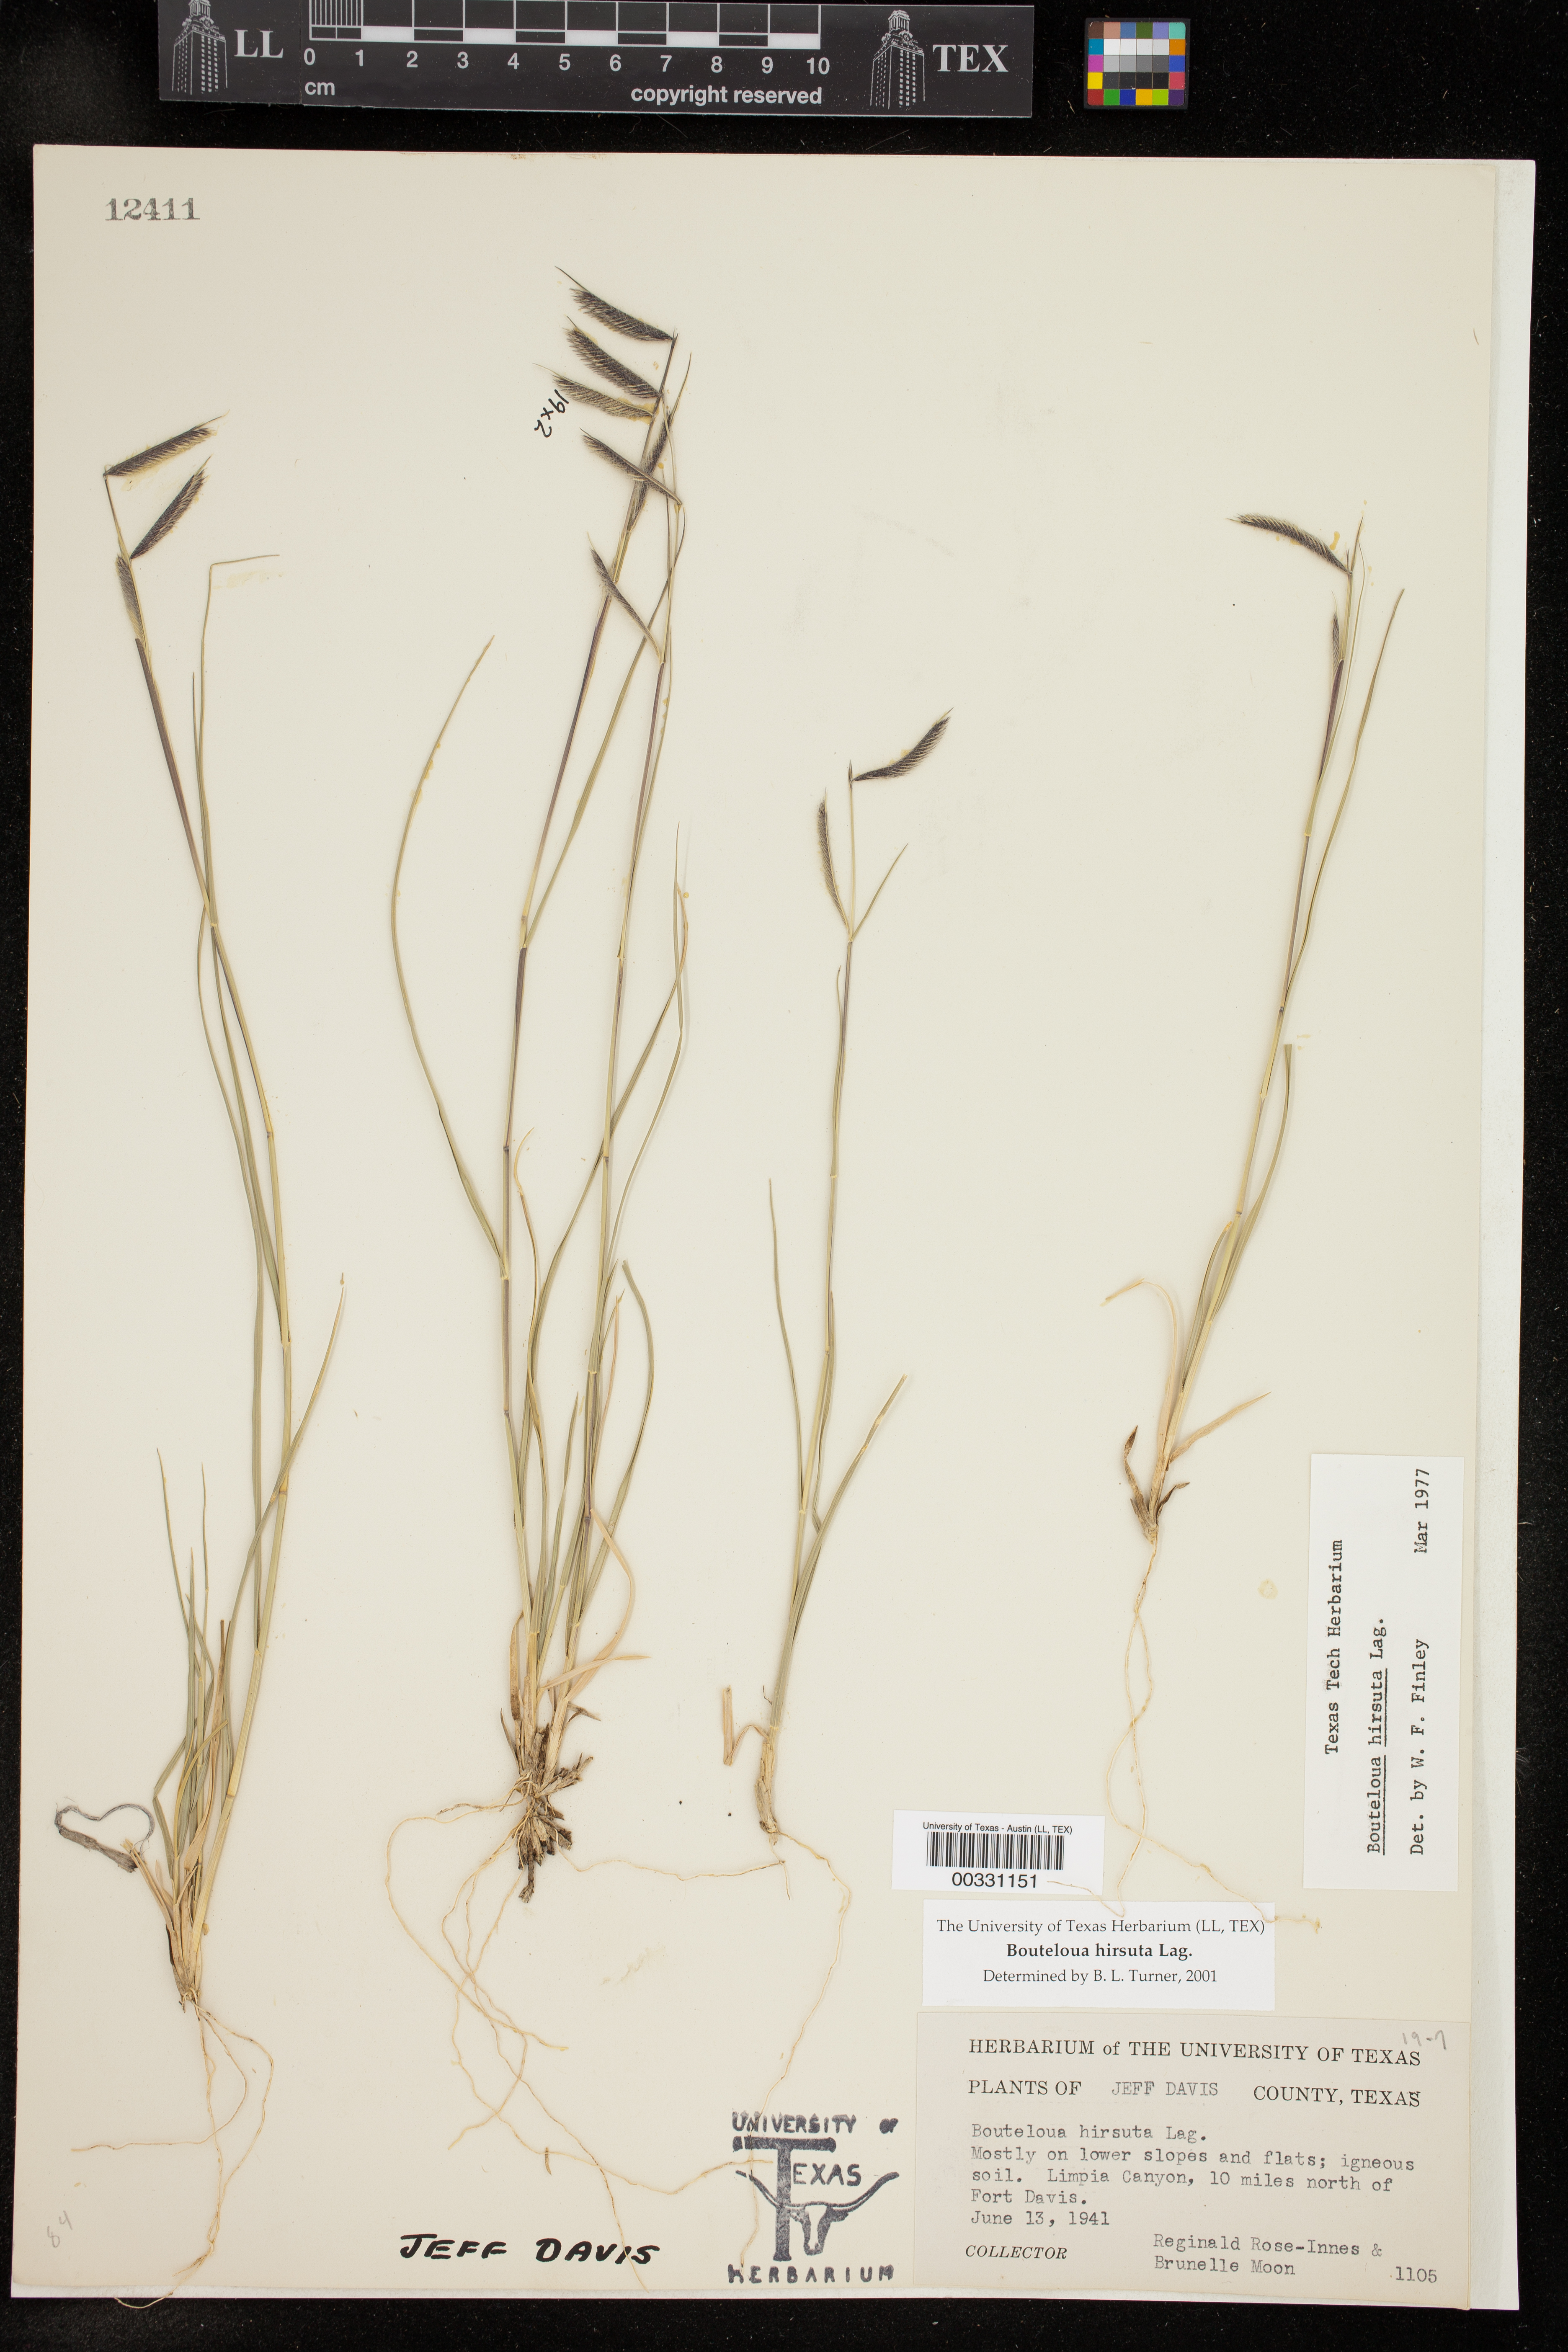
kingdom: Plantae
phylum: Tracheophyta
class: Liliopsida
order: Poales
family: Poaceae
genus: Bouteloua
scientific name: Bouteloua hirsuta
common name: Hairy grama
